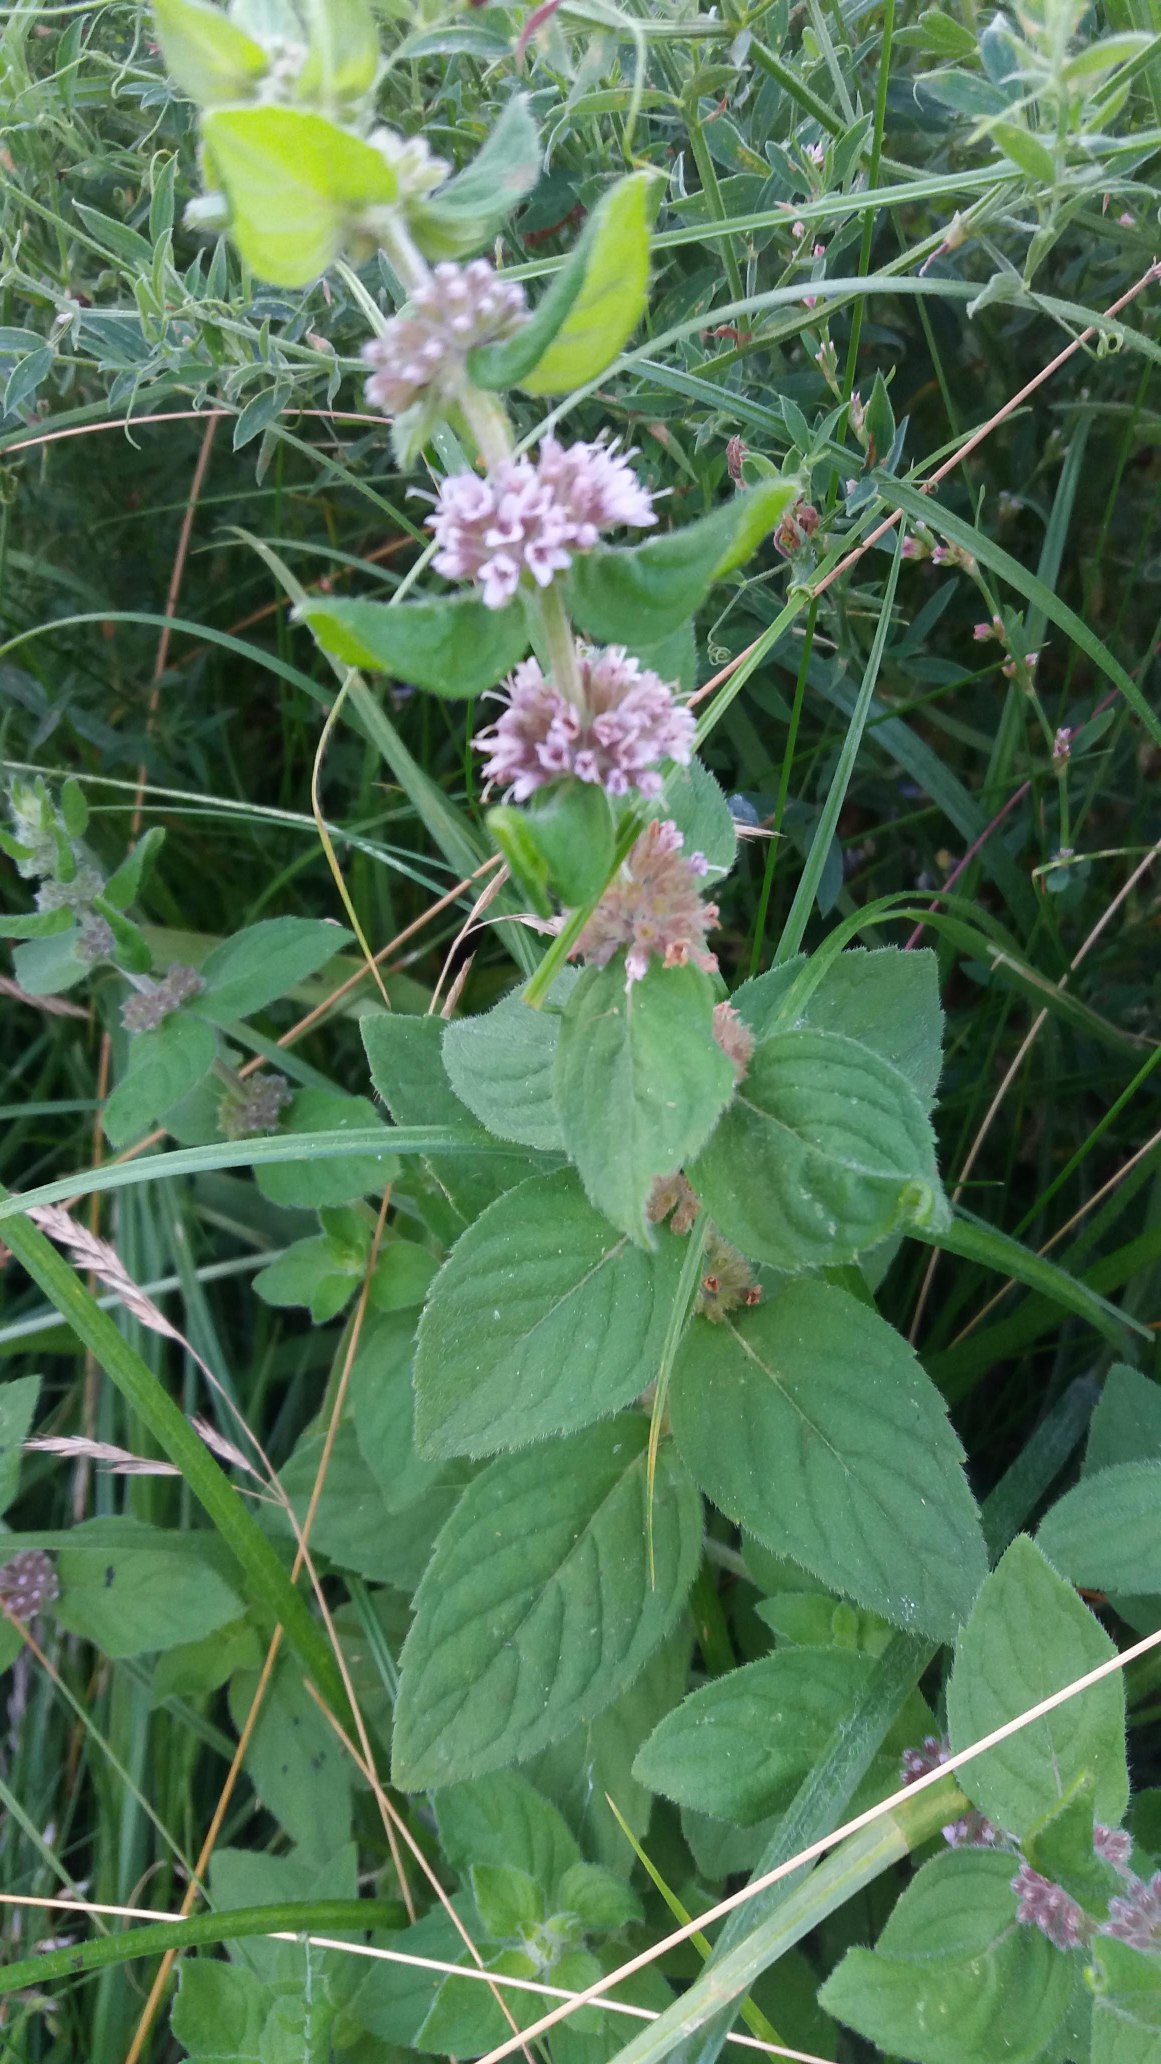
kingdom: Plantae
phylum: Tracheophyta
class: Magnoliopsida
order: Lamiales
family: Lamiaceae
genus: Mentha
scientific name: Mentha arvensis
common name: Ager-mynte
